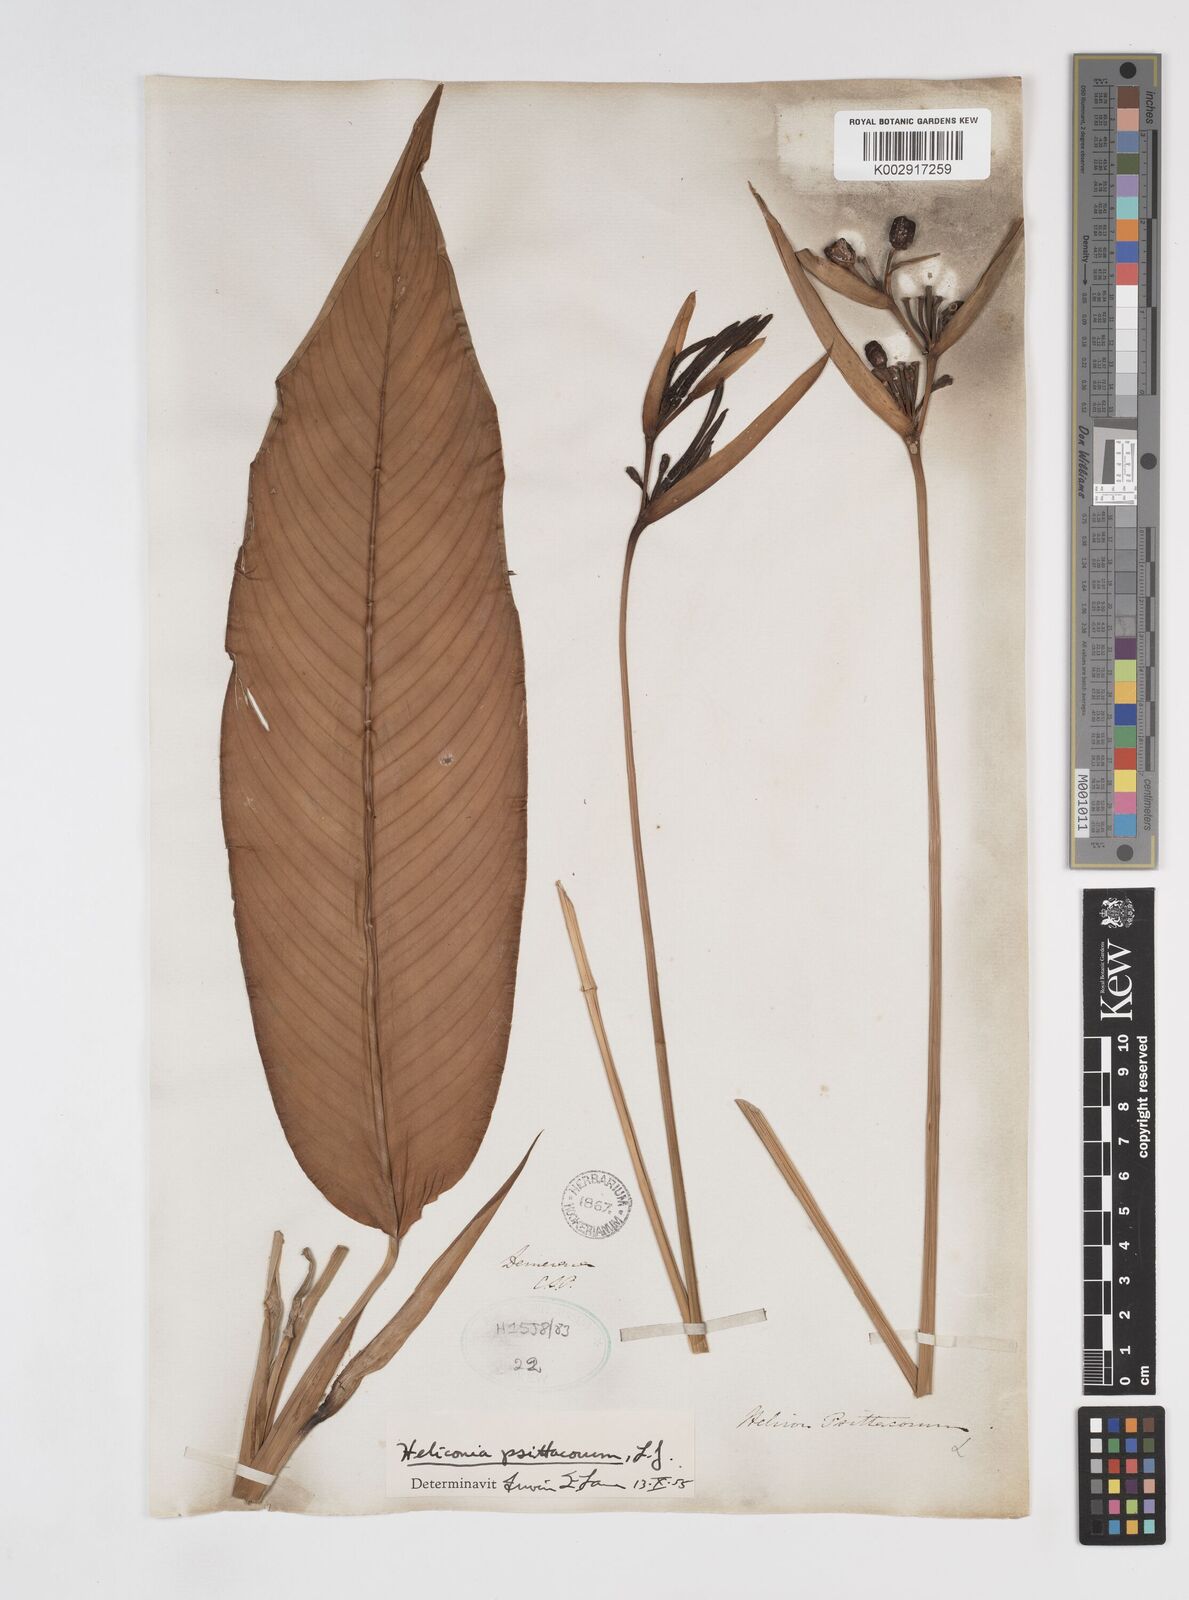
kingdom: Plantae
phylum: Tracheophyta
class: Liliopsida
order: Zingiberales
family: Heliconiaceae
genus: Heliconia
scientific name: Heliconia psittacorum
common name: Parrot's-flower
